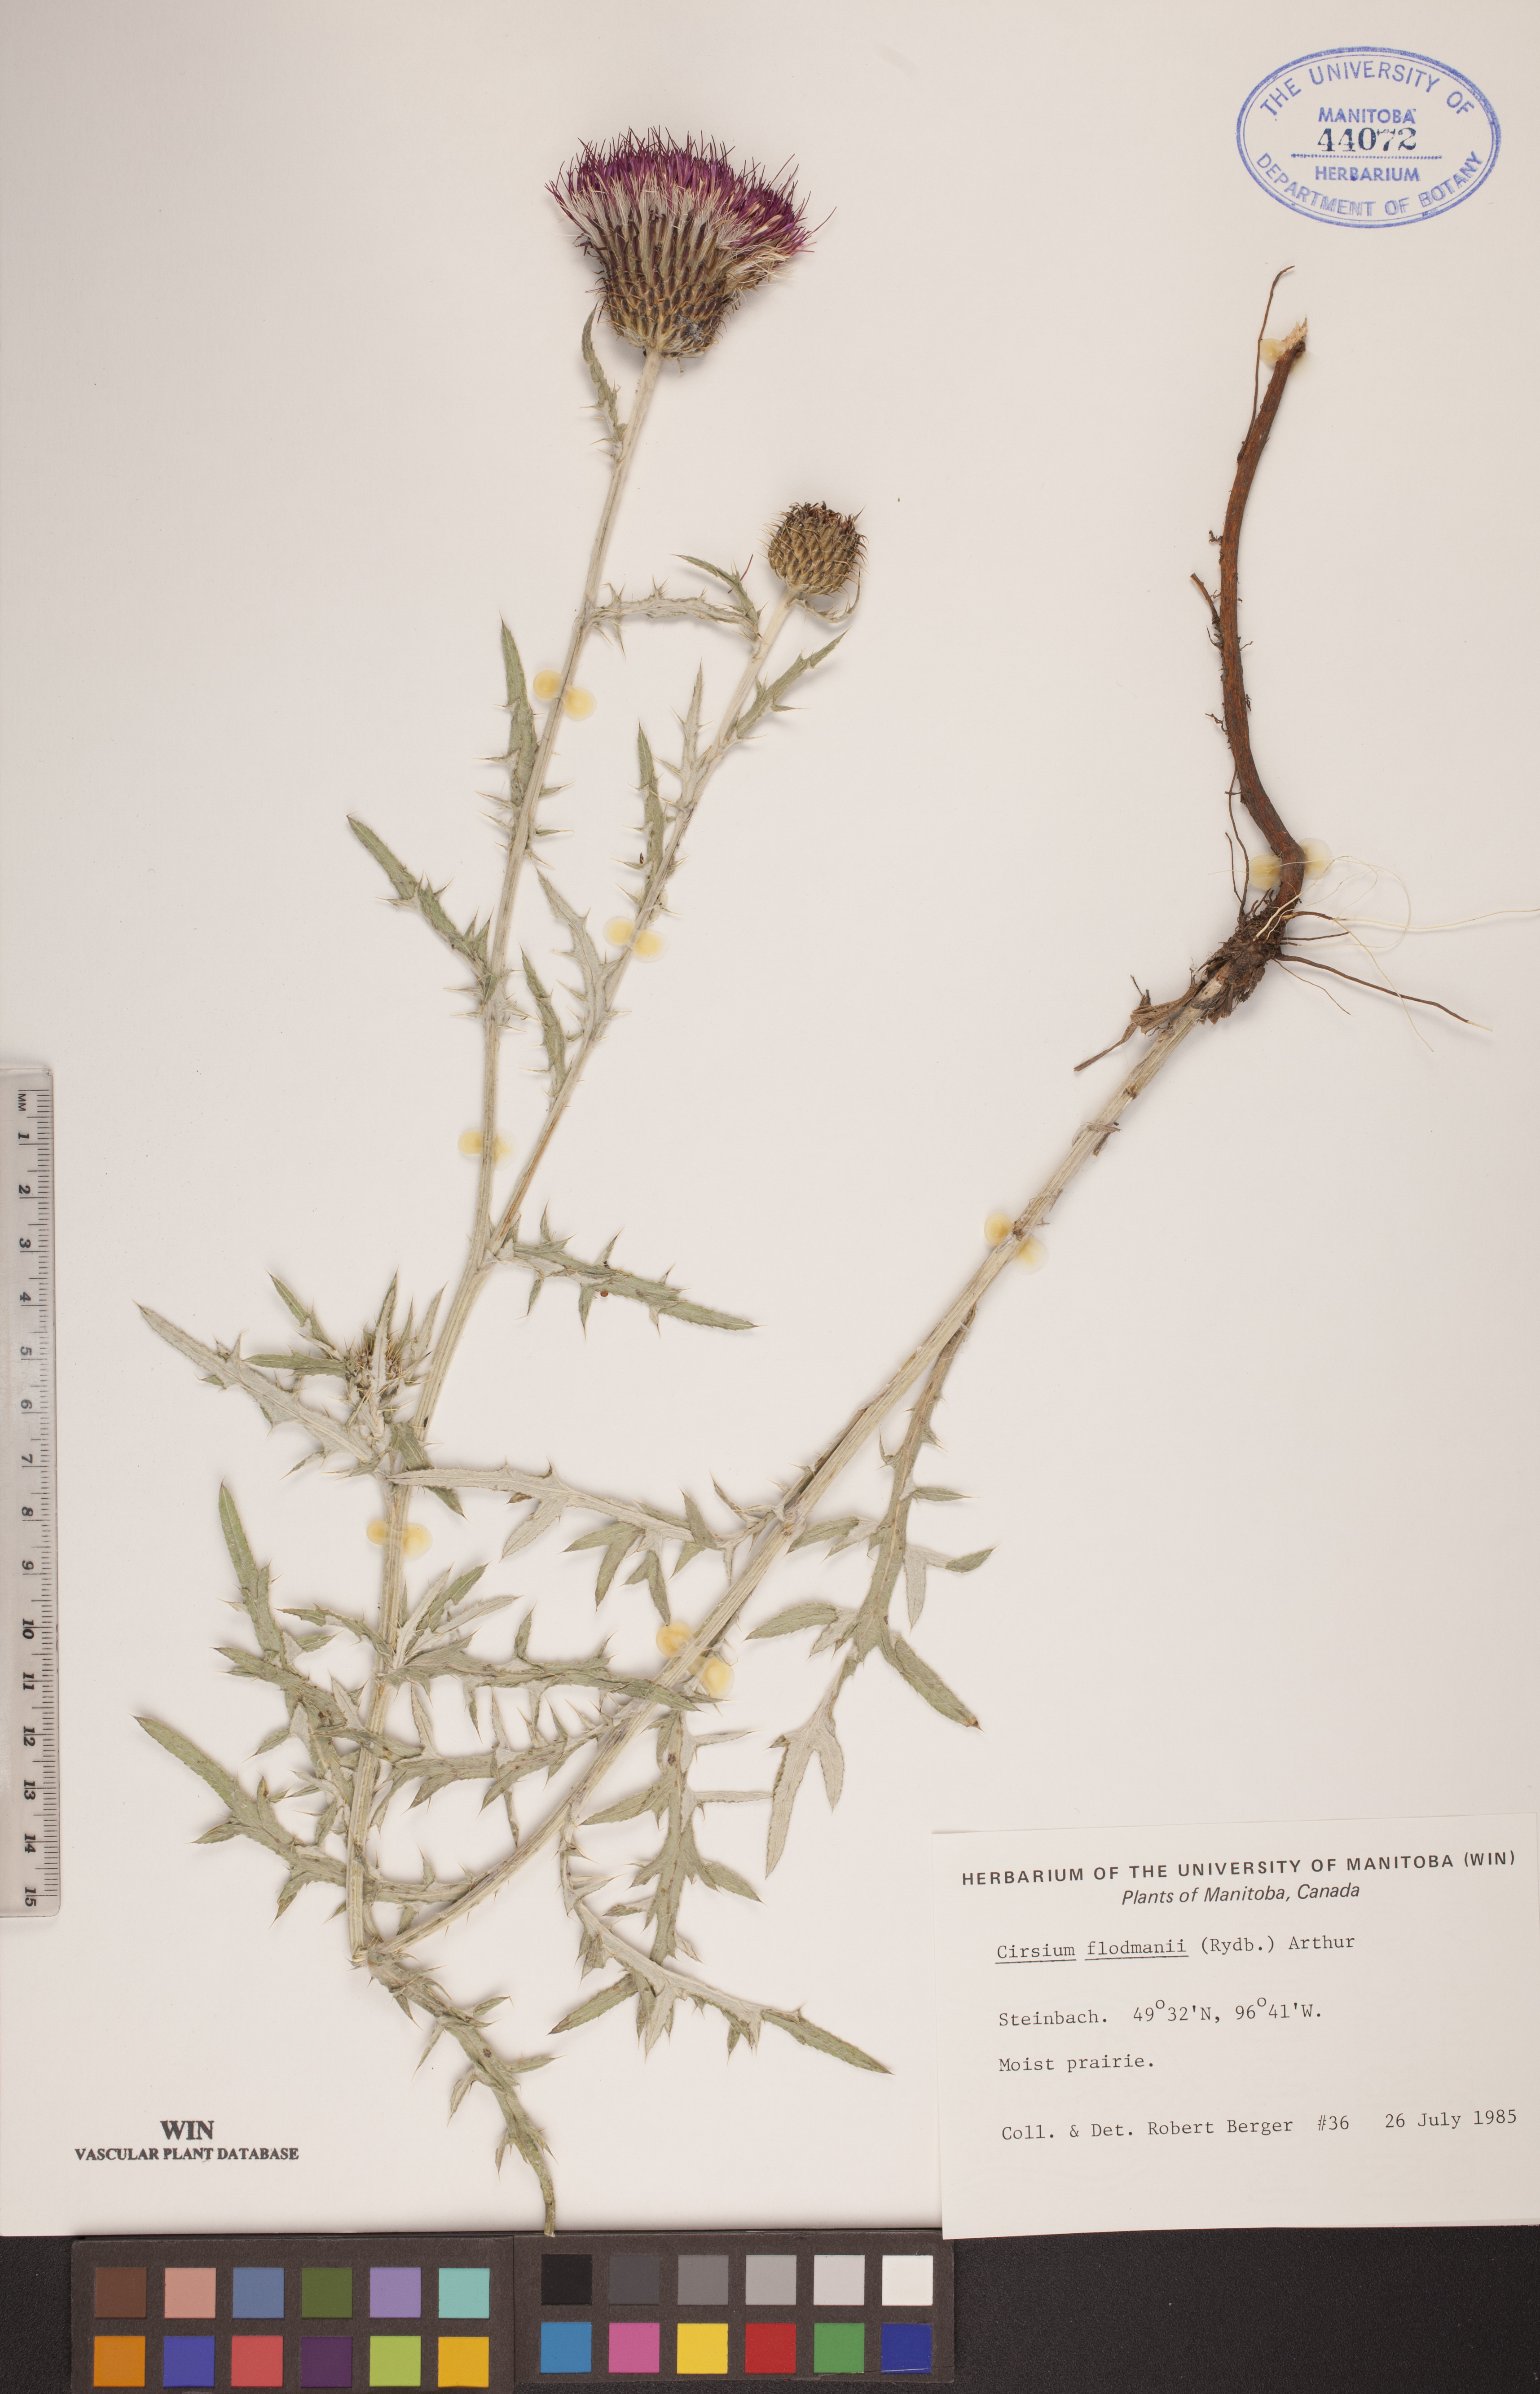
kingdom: Plantae
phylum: Tracheophyta
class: Magnoliopsida
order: Asterales
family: Asteraceae
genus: Cirsium
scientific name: Cirsium flodmanii
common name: Flodman's thistle
